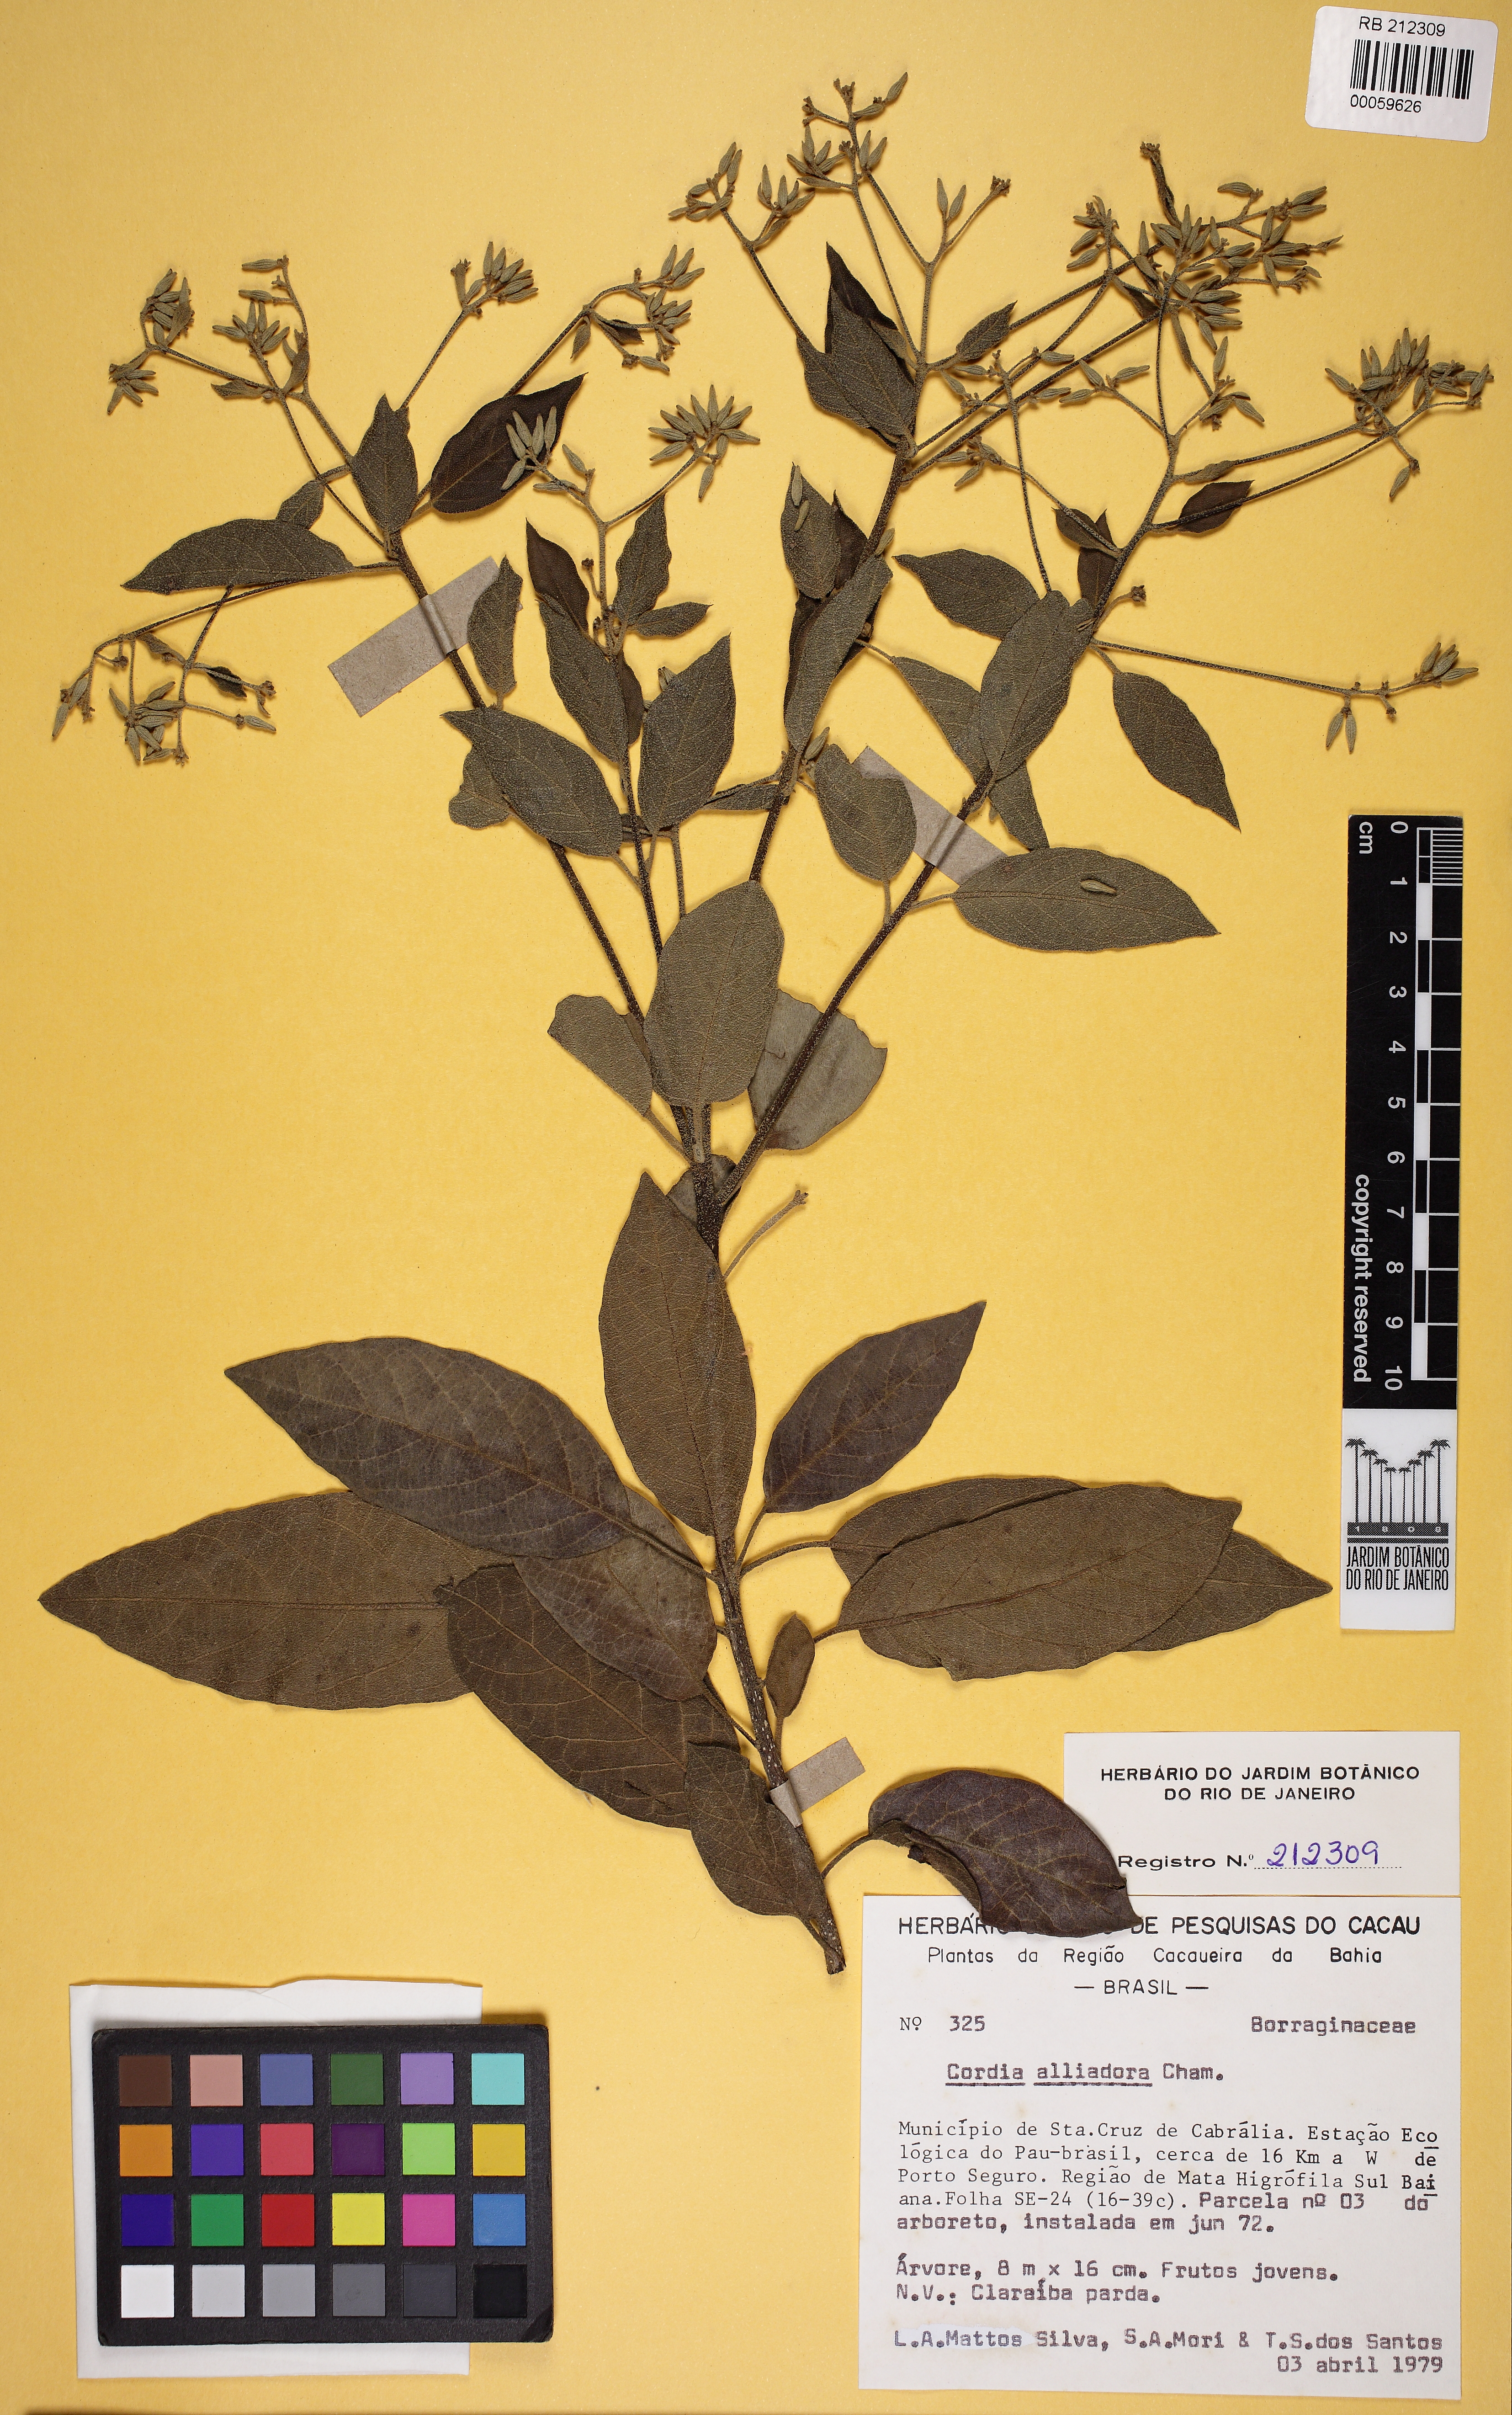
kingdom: Plantae
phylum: Tracheophyta
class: Magnoliopsida
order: Boraginales
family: Cordiaceae
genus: Cordia
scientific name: Cordia alliodora
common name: Spanish elm
